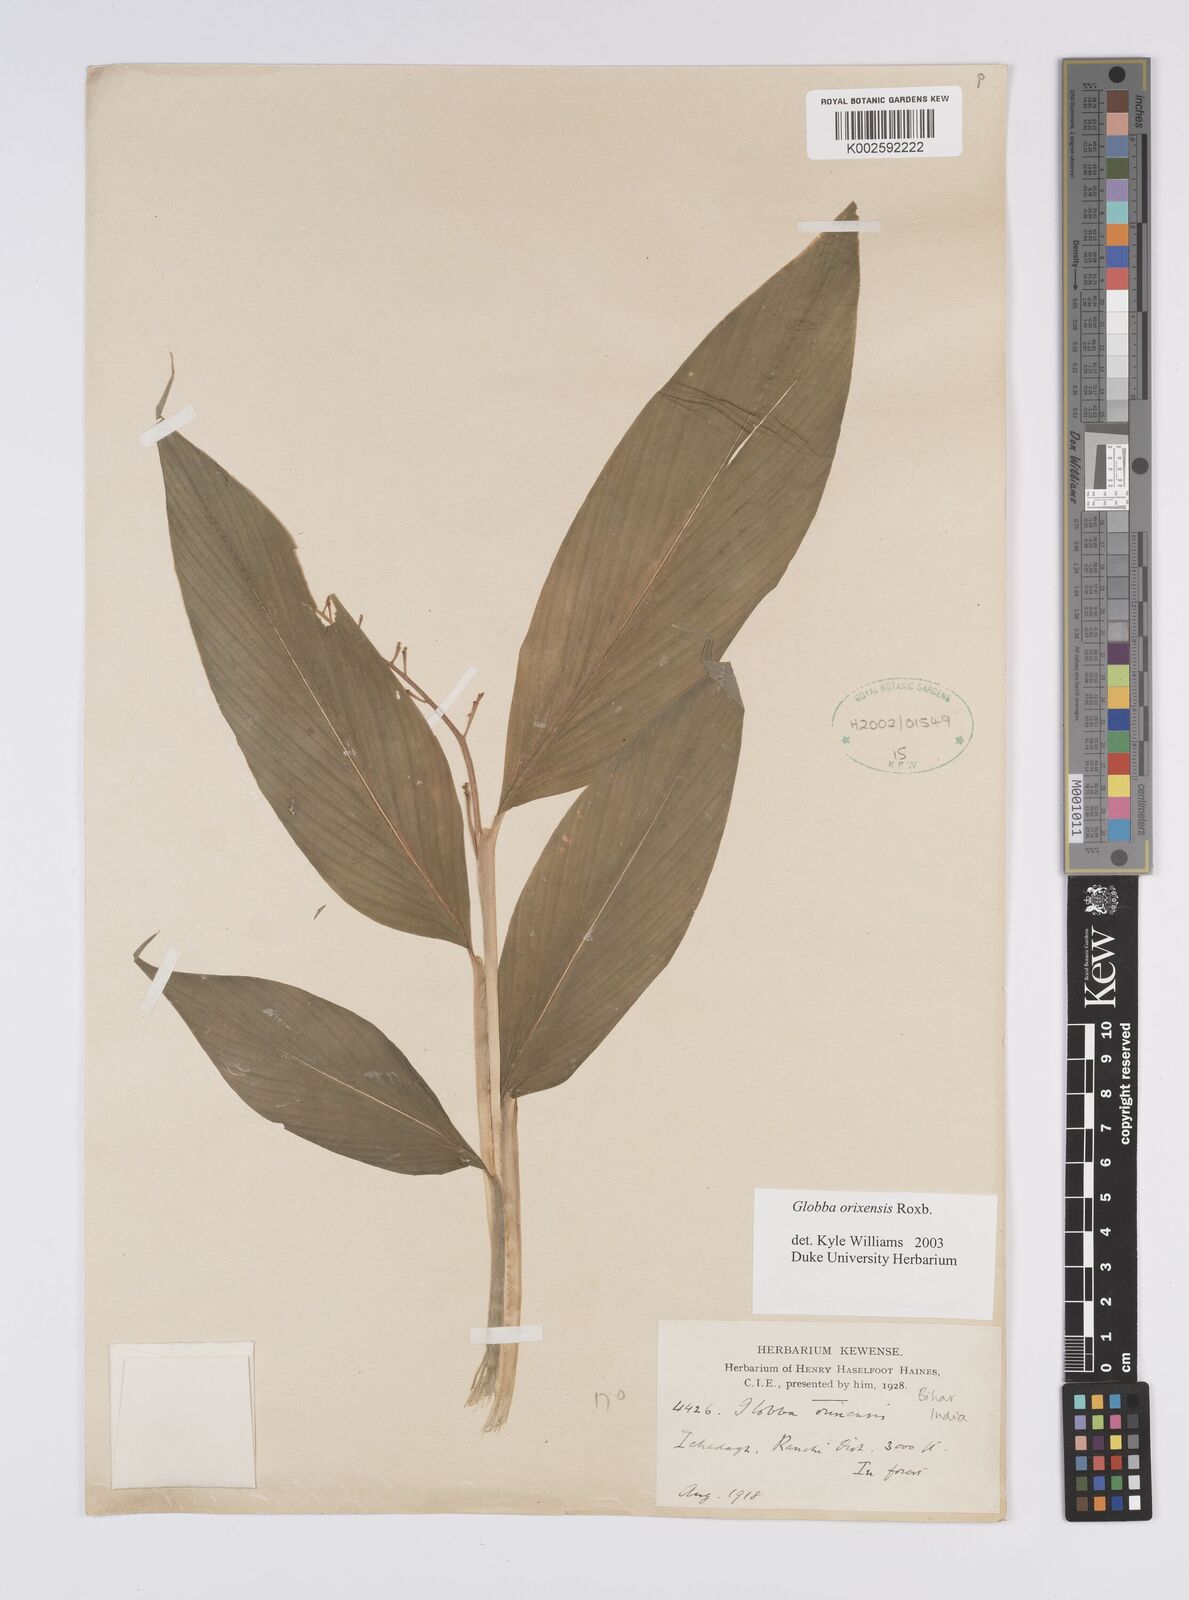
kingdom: Plantae
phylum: Tracheophyta
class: Liliopsida
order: Zingiberales
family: Zingiberaceae
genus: Globba
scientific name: Globba orixensis
